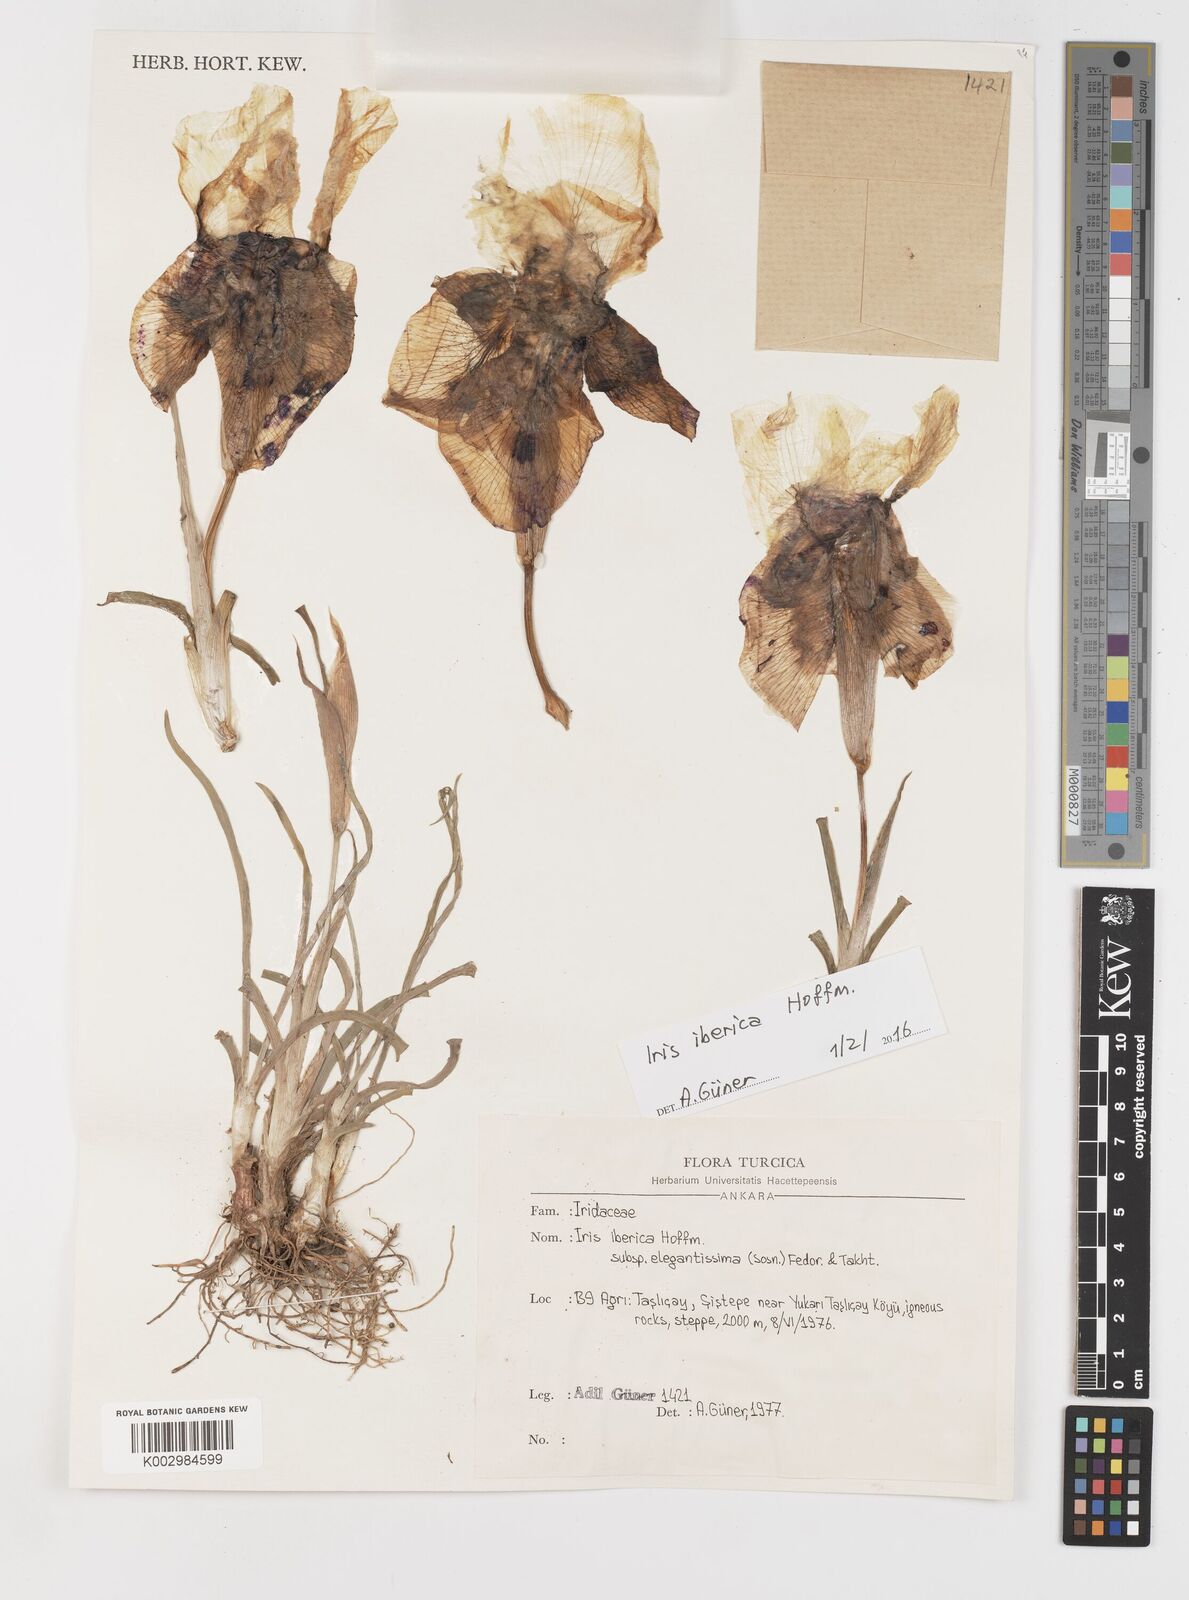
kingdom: Plantae
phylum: Tracheophyta
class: Liliopsida
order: Asparagales
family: Iridaceae
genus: Iris
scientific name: Iris iberica
